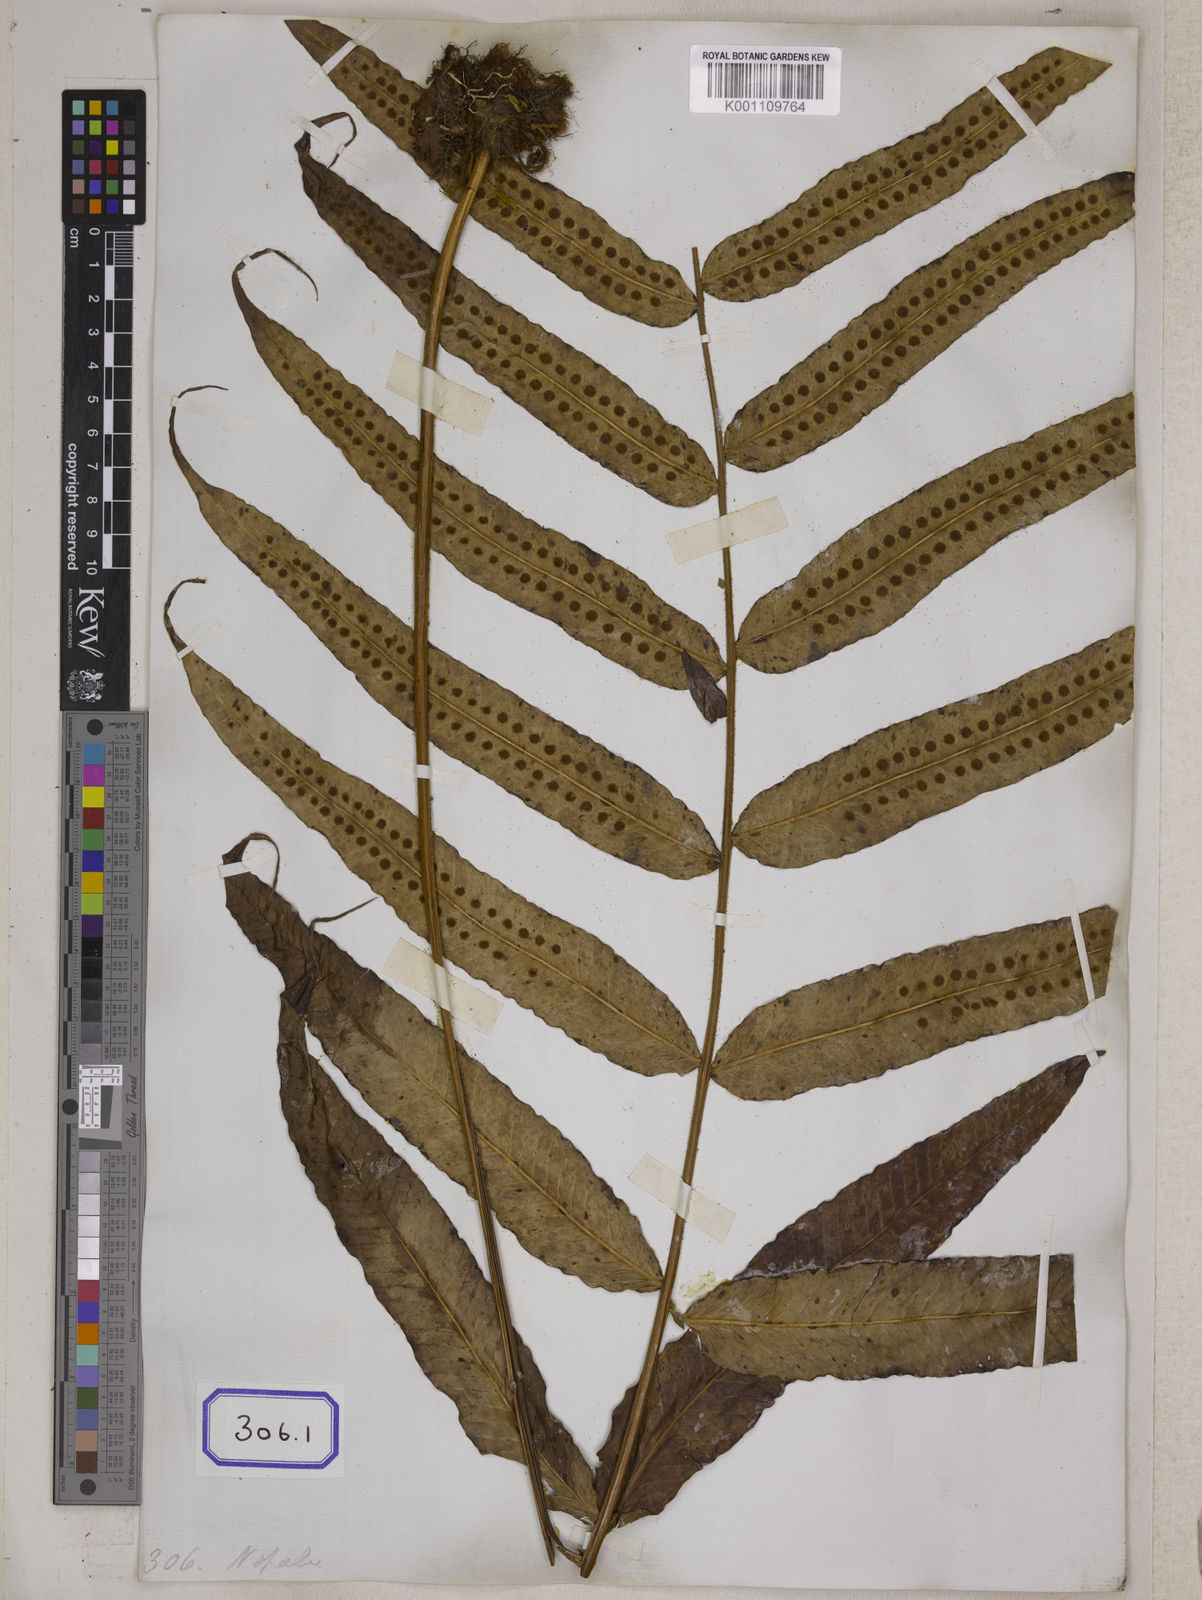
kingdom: Plantae
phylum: Tracheophyta
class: Polypodiopsida
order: Polypodiales
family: Polypodiaceae
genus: Selliguea
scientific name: Selliguea capitellata
